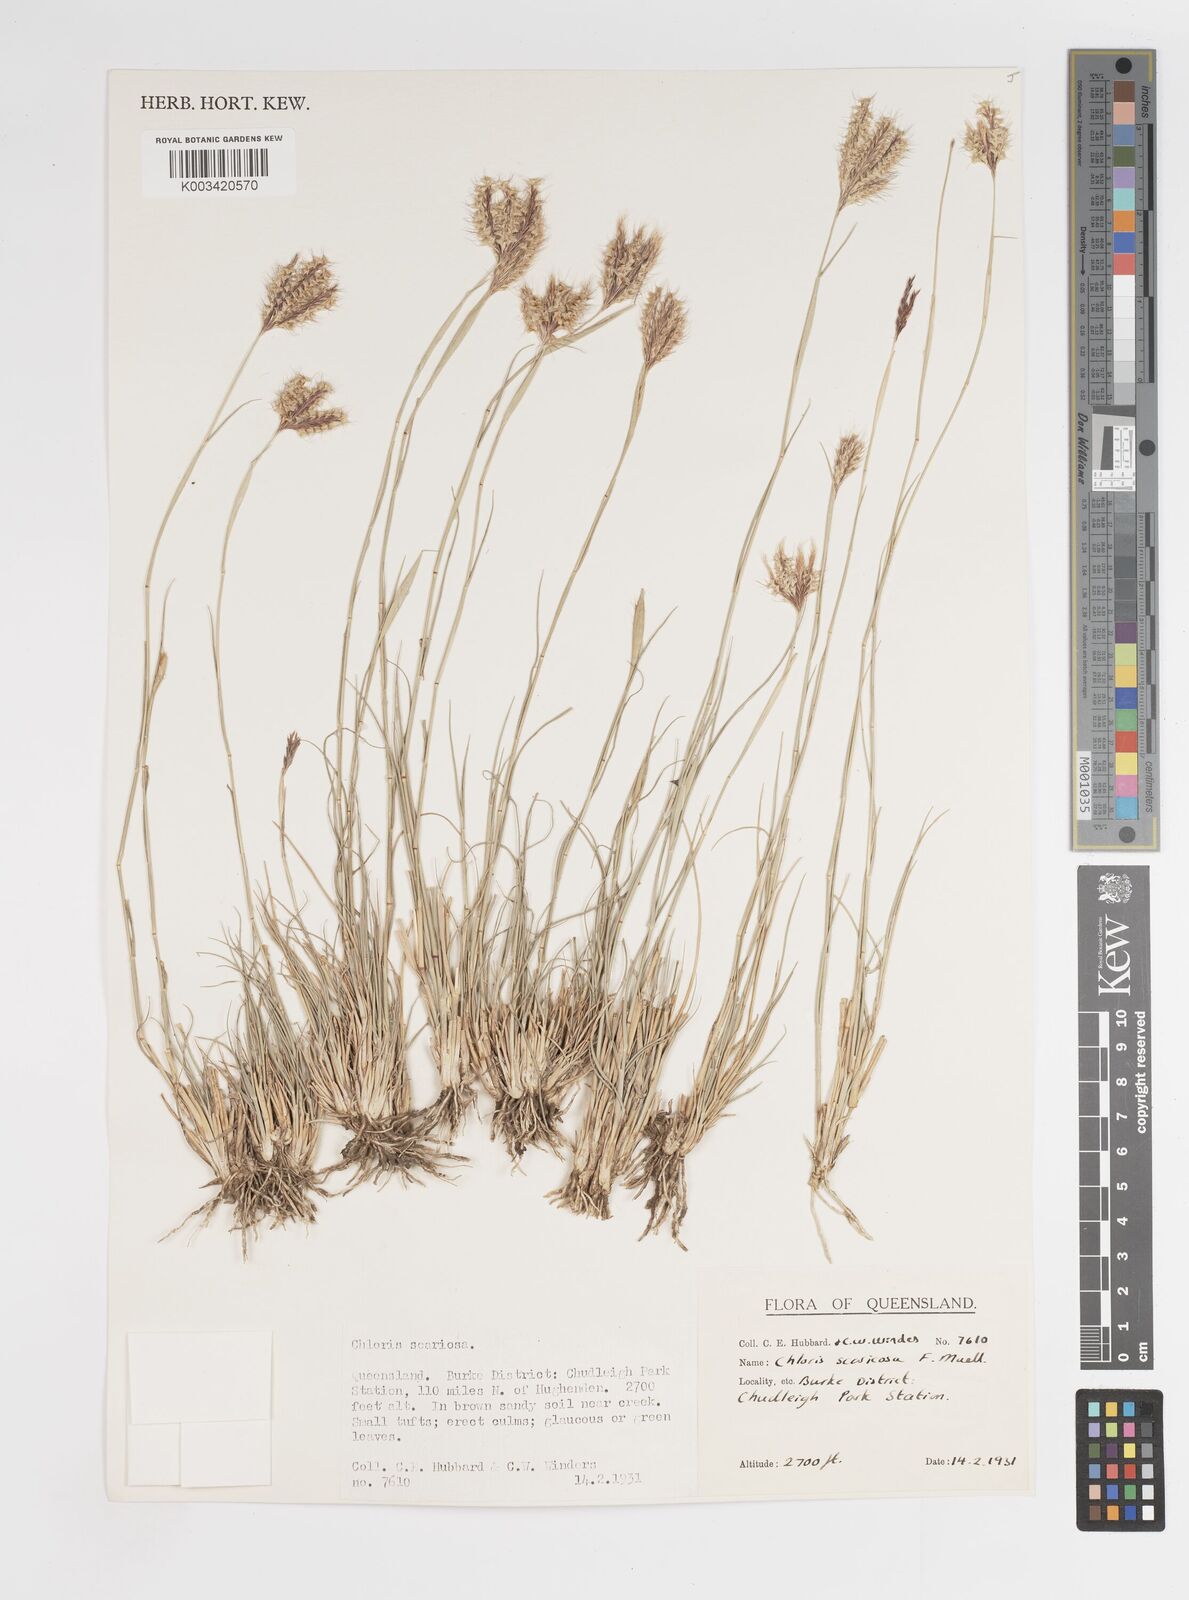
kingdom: Plantae
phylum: Tracheophyta
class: Liliopsida
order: Poales
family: Poaceae
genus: Oxychloris
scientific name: Oxychloris scariosa
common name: Winged windmill grass
